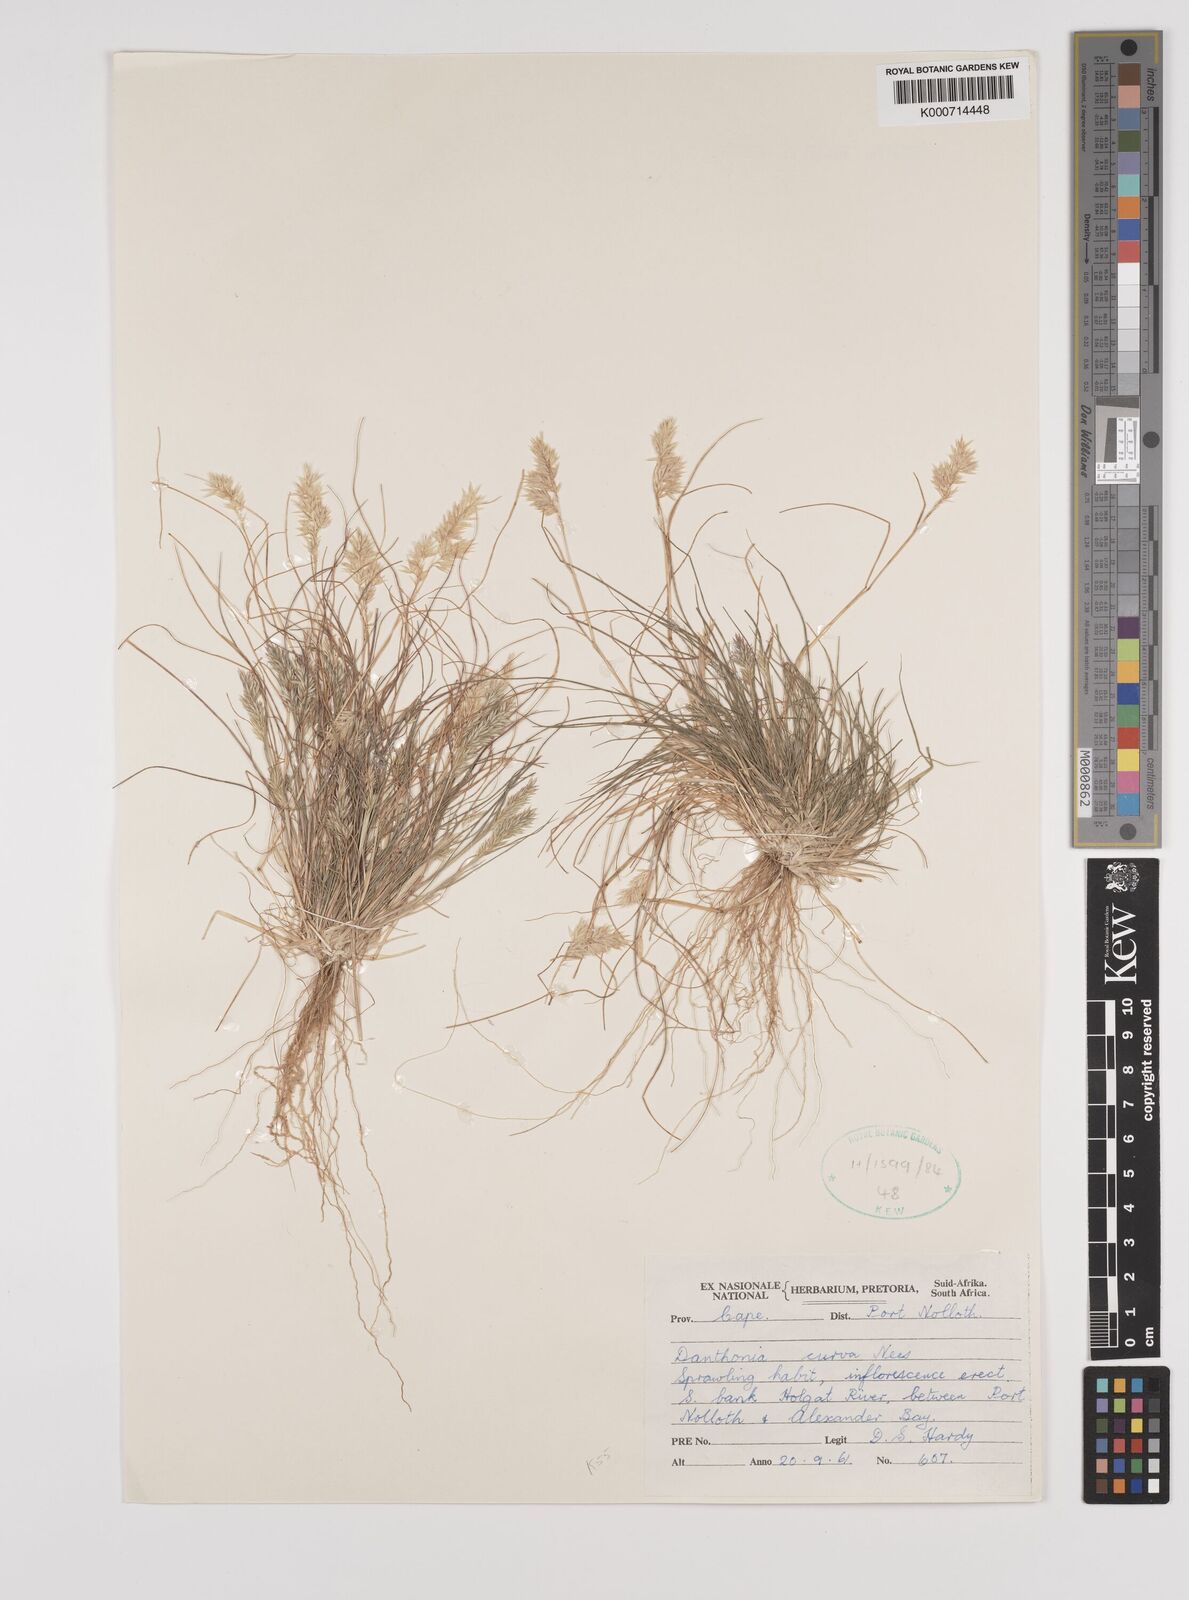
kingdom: Plantae
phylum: Tracheophyta
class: Liliopsida
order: Poales
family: Poaceae
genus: Rytidosperma
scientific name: Rytidosperma
